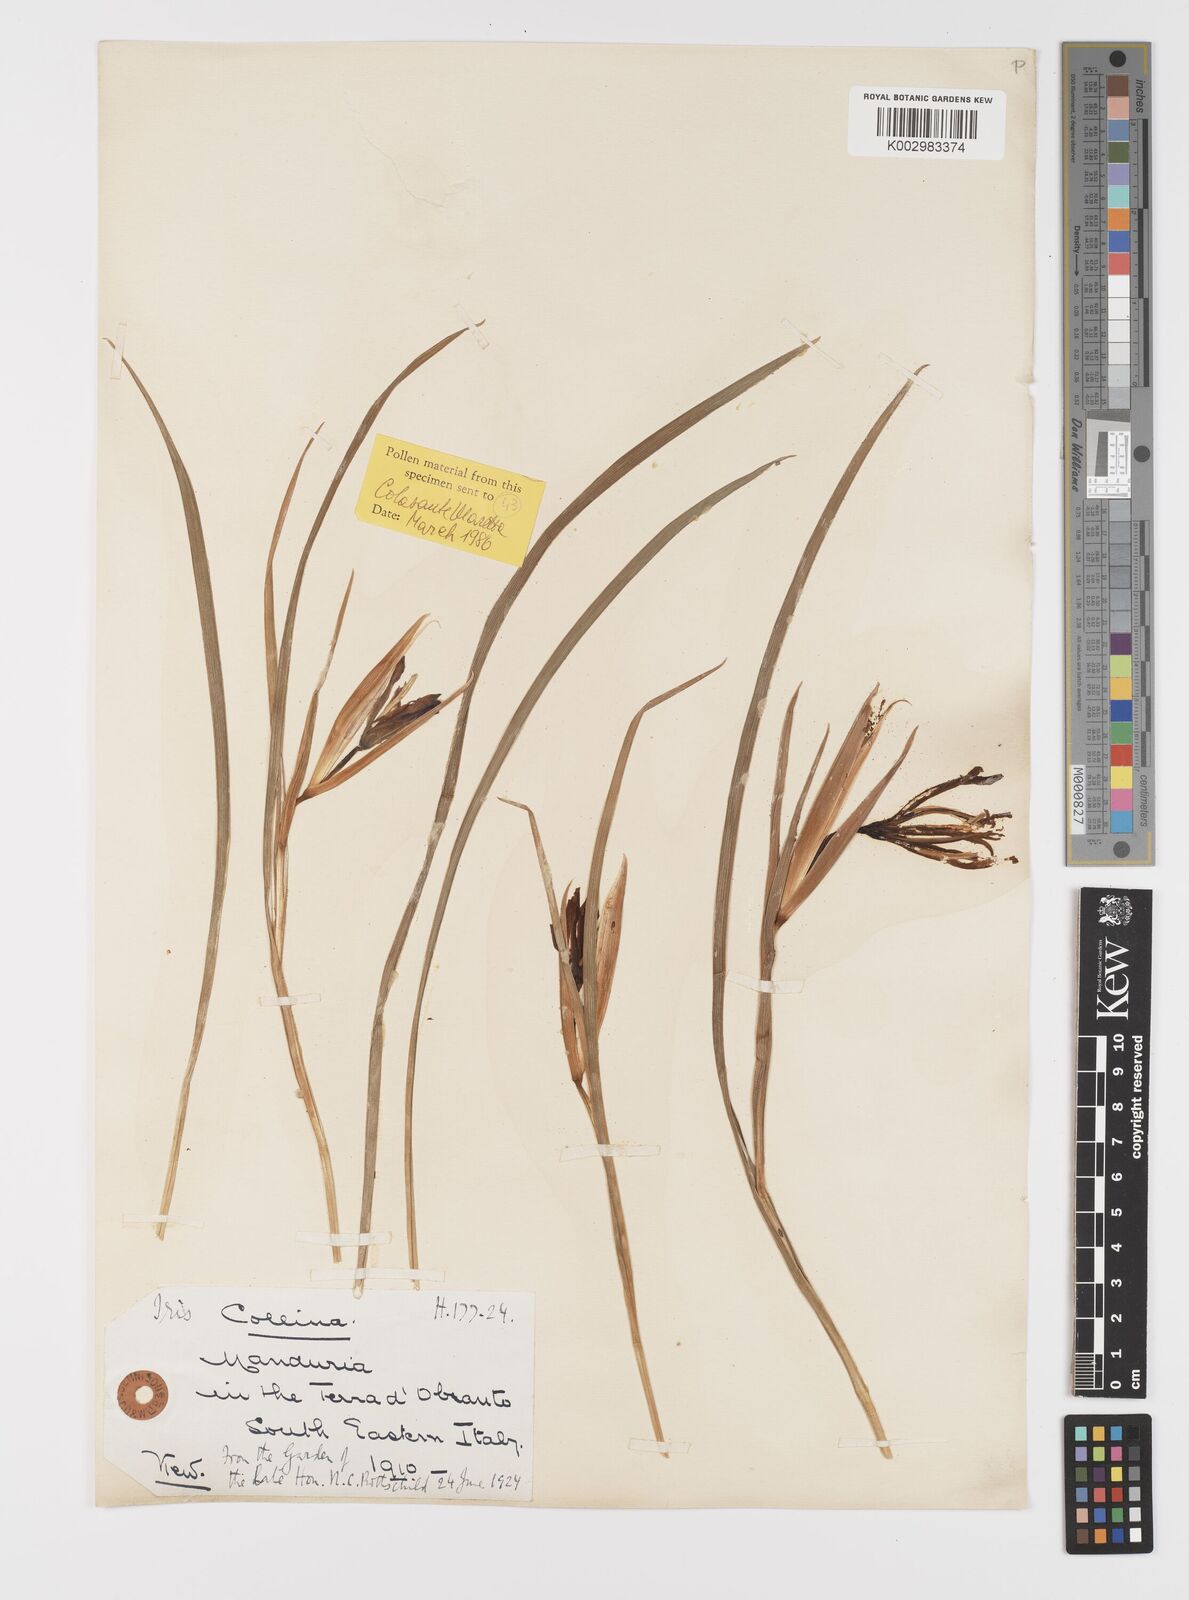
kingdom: Plantae
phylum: Tracheophyta
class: Liliopsida
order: Asparagales
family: Iridaceae
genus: Moraea
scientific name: Moraea sisyrinchium
